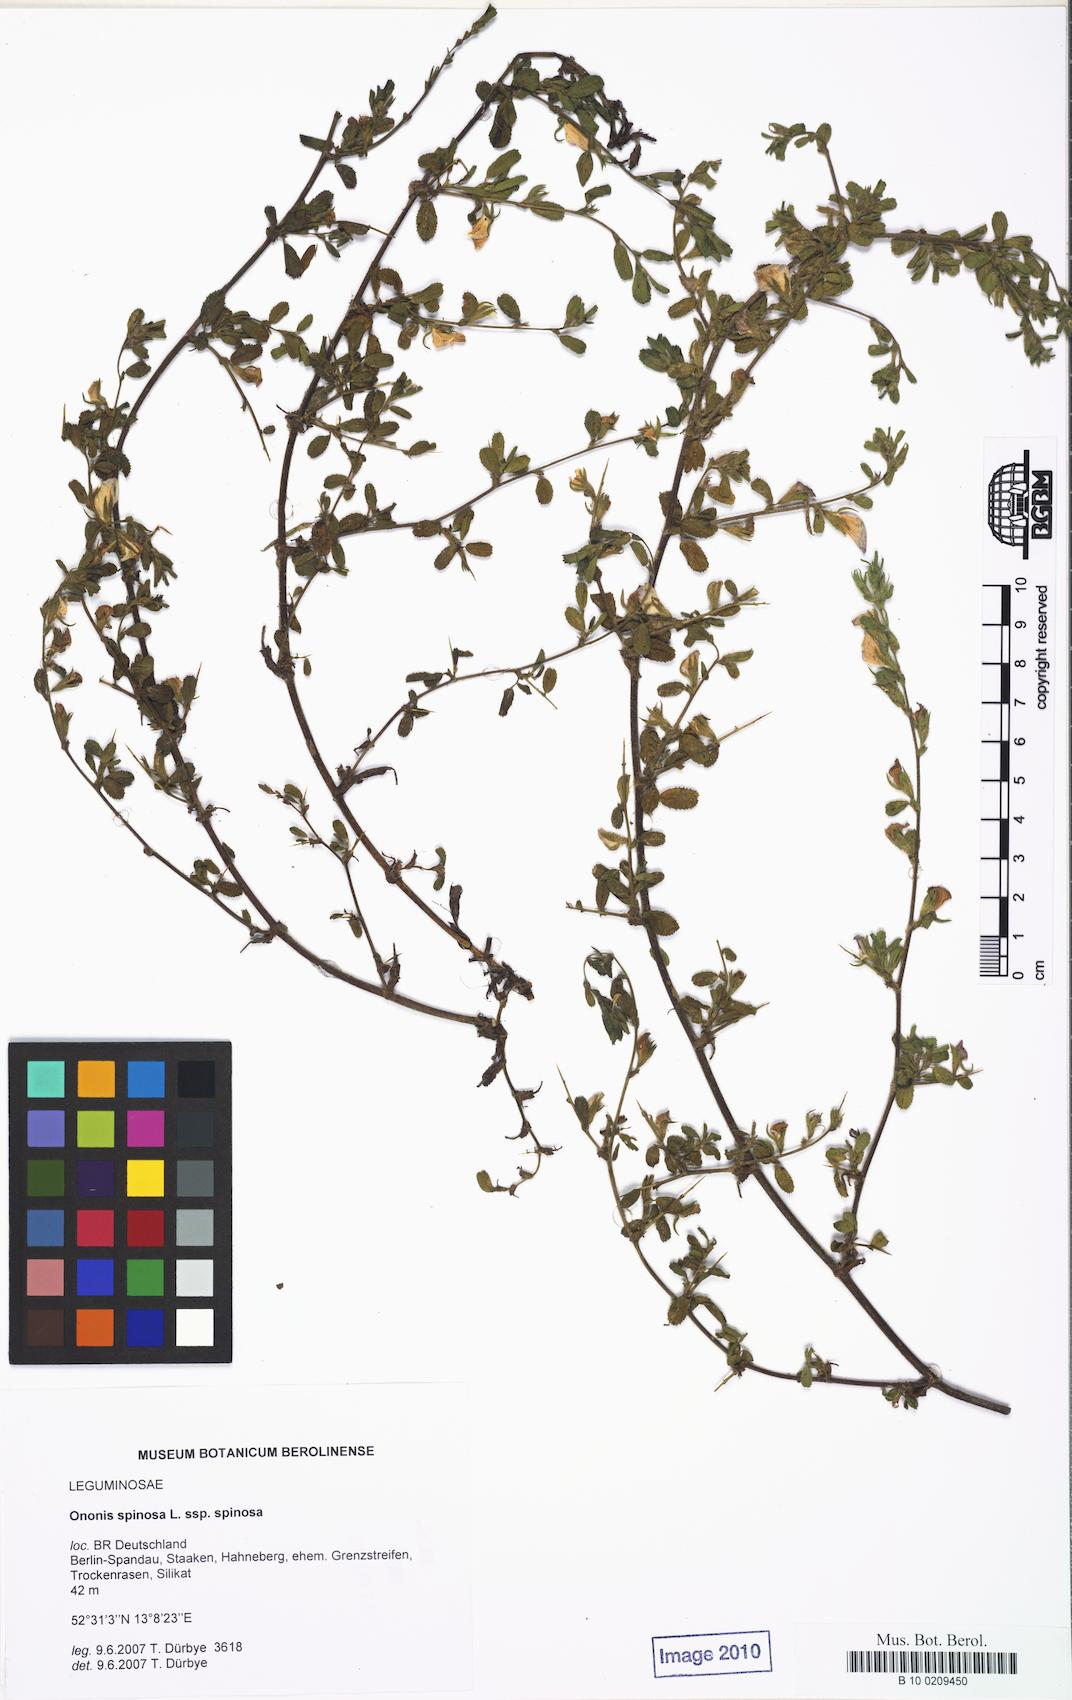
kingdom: Plantae
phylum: Tracheophyta
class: Magnoliopsida
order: Fabales
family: Fabaceae
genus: Ononis
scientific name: Ononis spinosa
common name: Spiny restharrow
